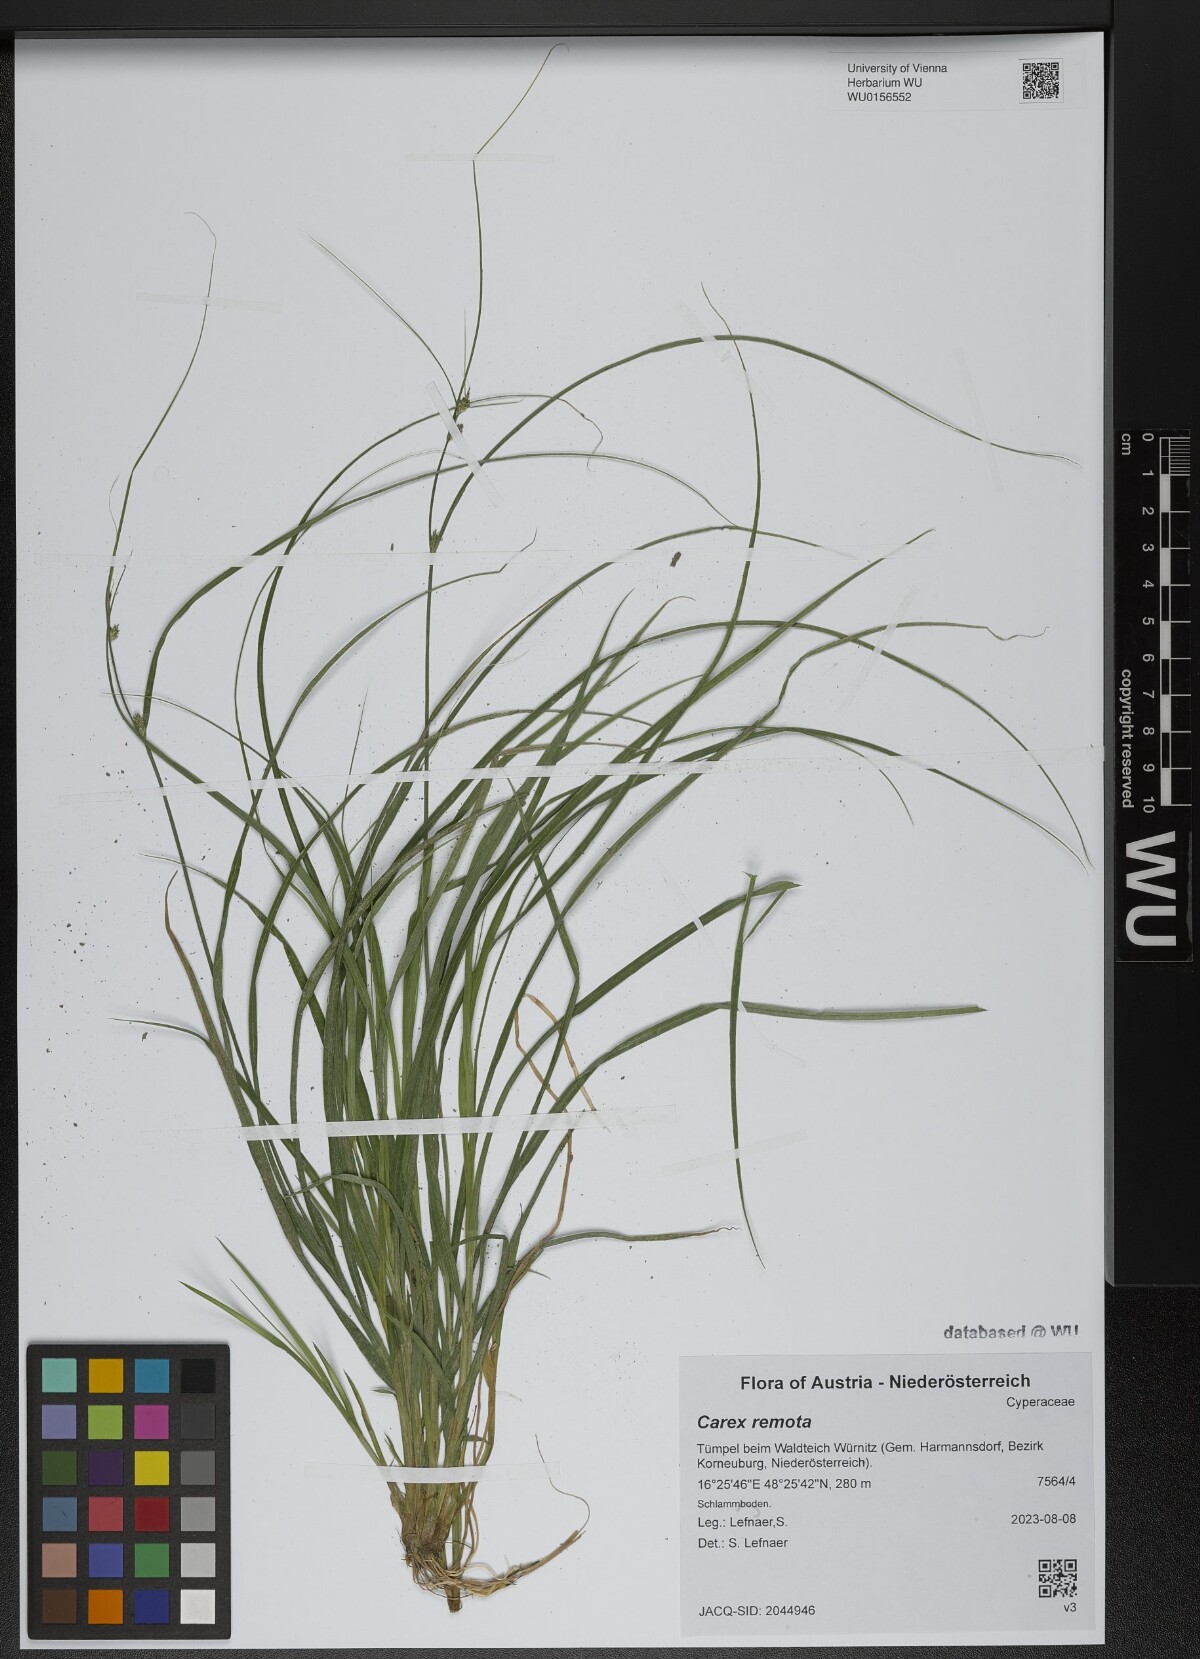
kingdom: Plantae
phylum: Tracheophyta
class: Liliopsida
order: Poales
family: Cyperaceae
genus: Carex
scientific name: Carex remota
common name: Remote sedge
